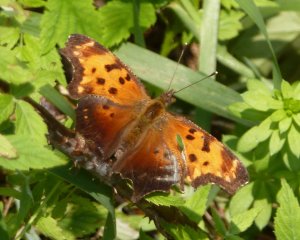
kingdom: Animalia
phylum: Arthropoda
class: Insecta
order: Lepidoptera
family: Nymphalidae
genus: Polygonia
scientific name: Polygonia comma
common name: Eastern Comma
